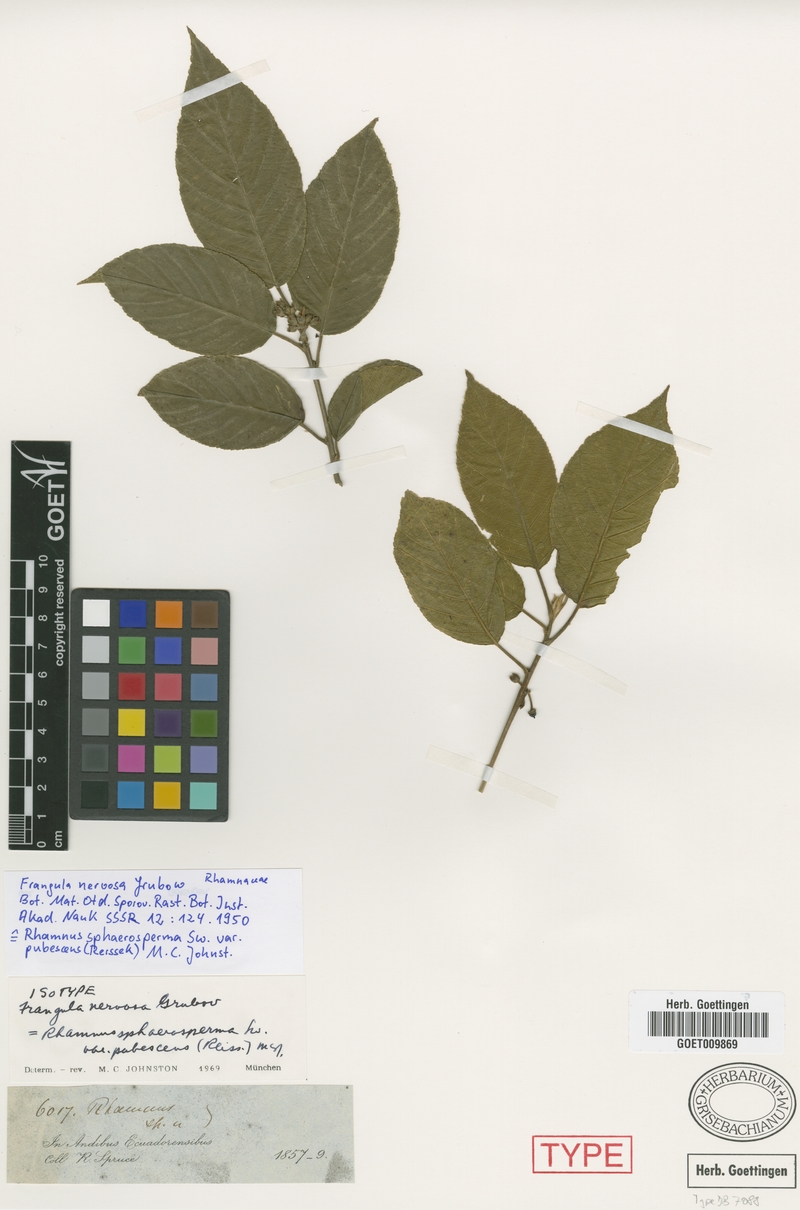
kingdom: Plantae
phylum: Tracheophyta
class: Magnoliopsida
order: Rosales
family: Rhamnaceae
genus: Frangula
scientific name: Frangula
